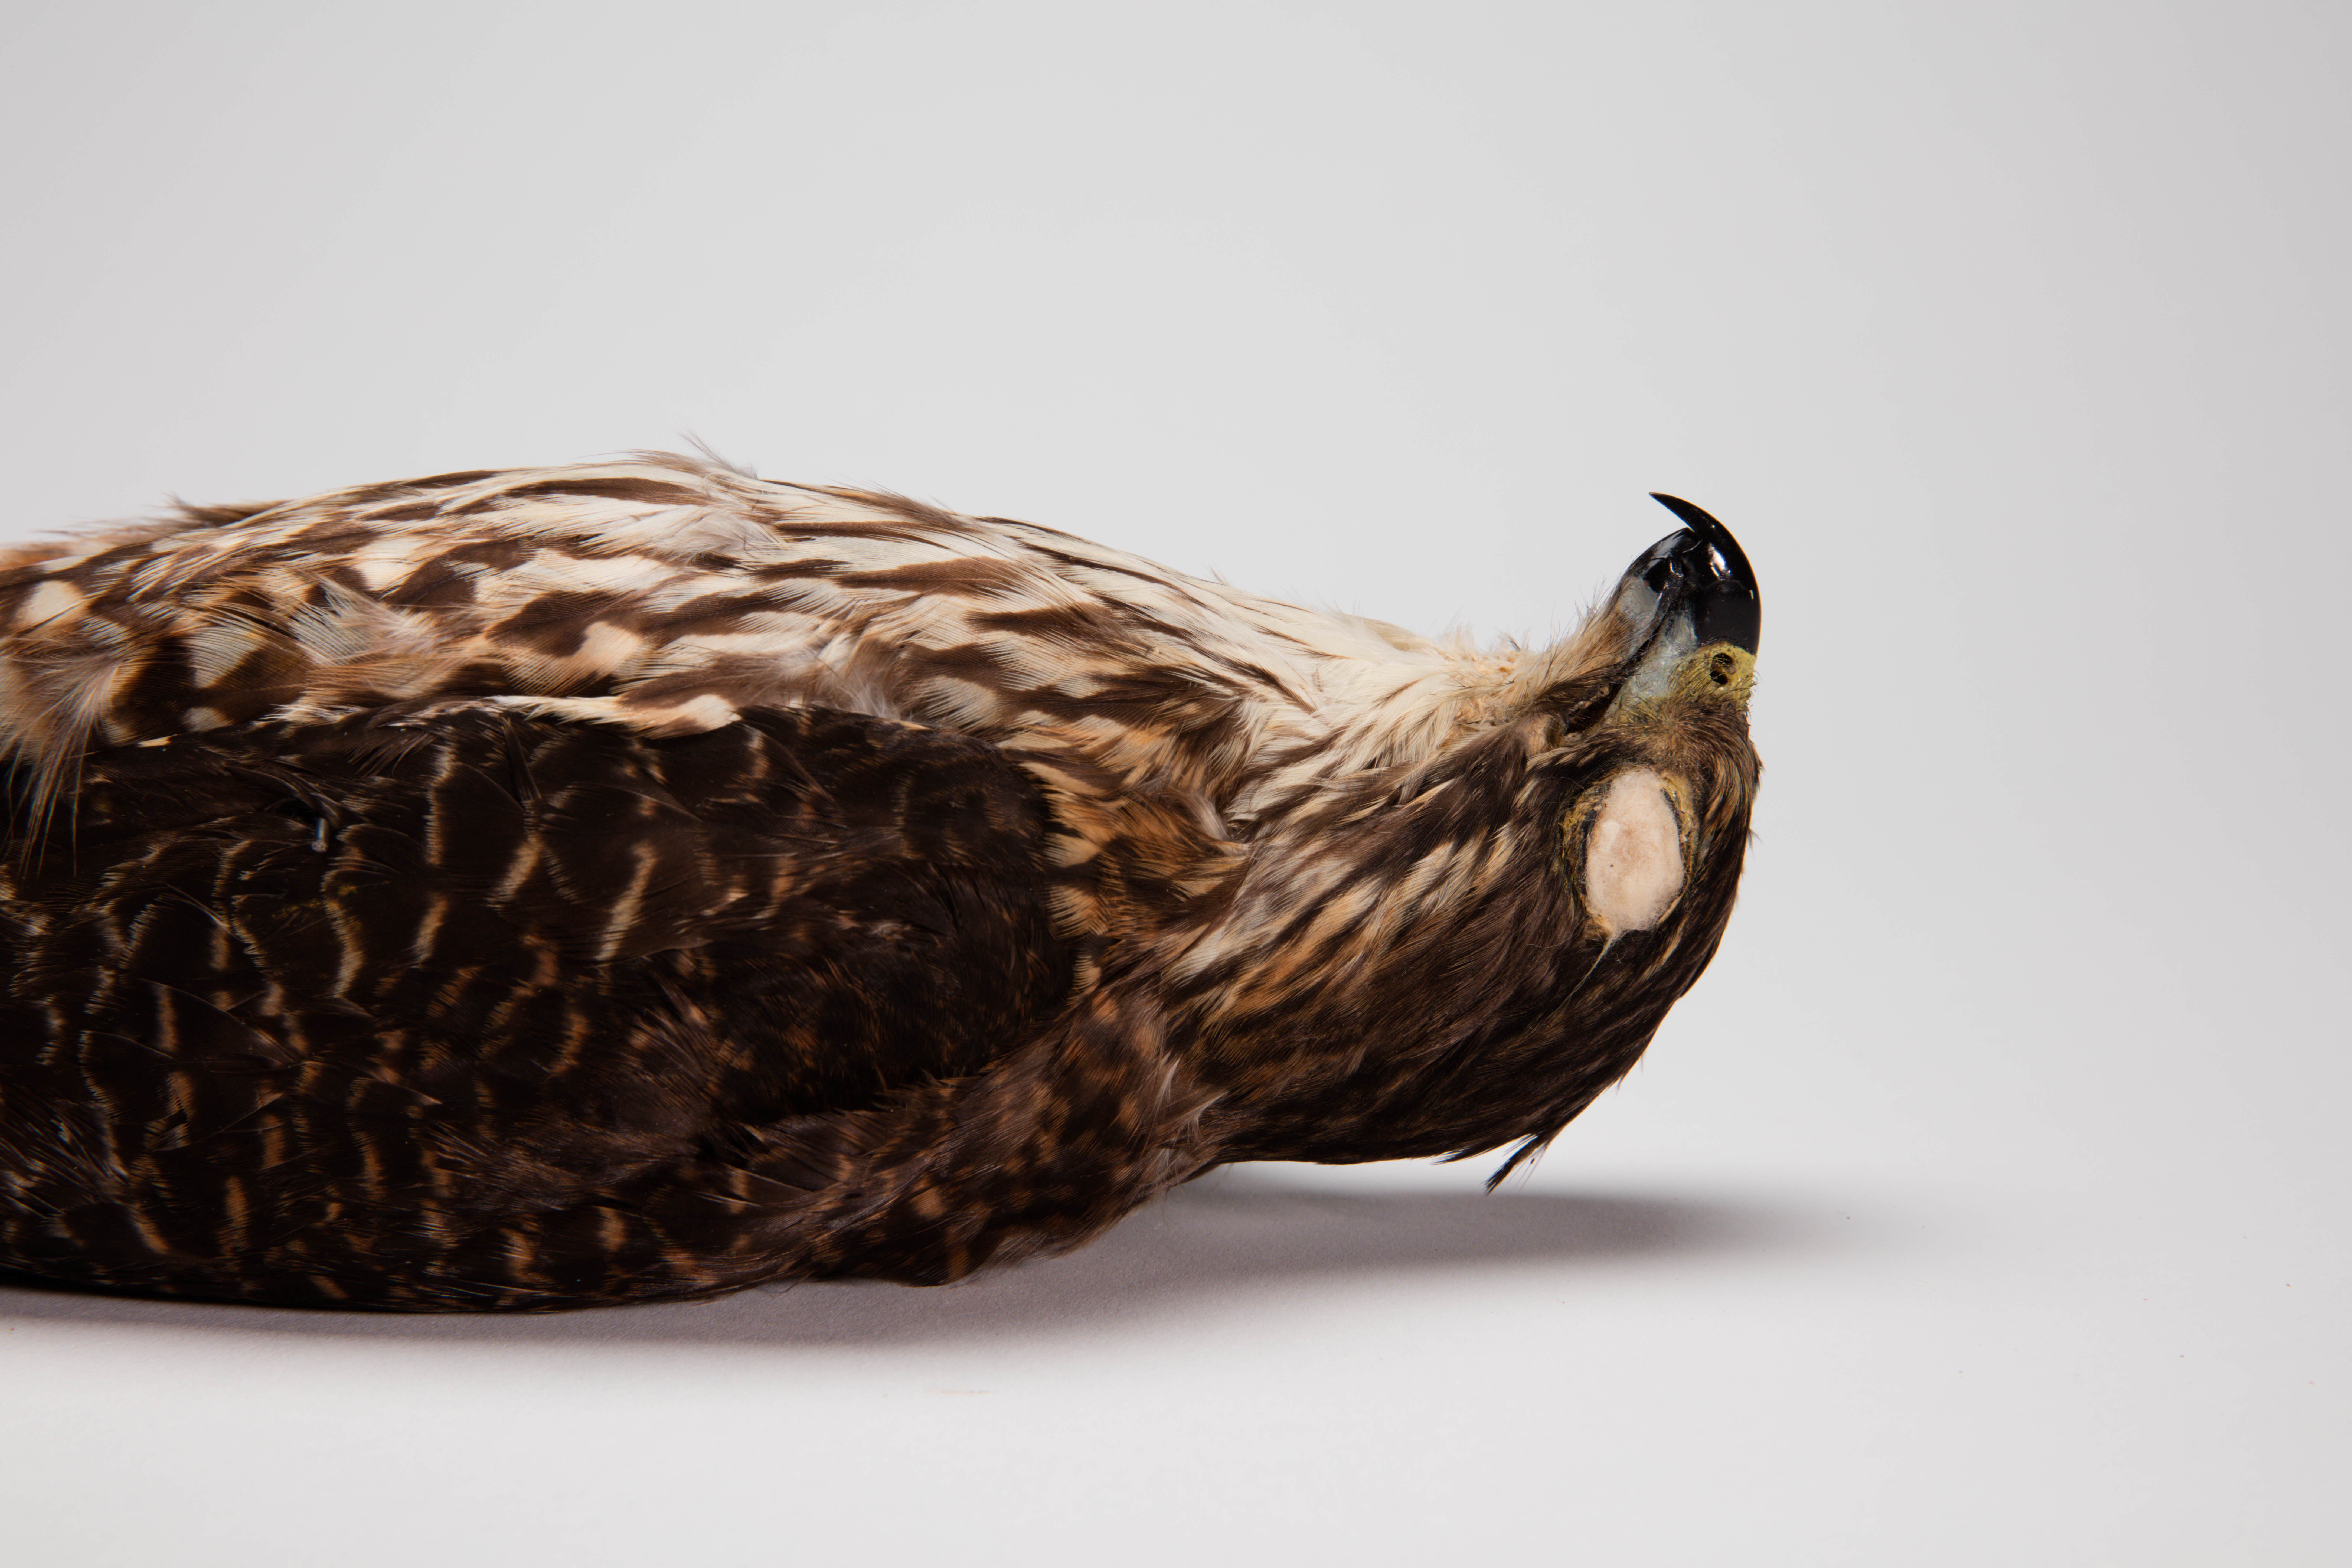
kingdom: Animalia
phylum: Chordata
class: Aves
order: Falconiformes
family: Falconidae
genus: Falco
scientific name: Falco novaeseelandiae
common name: New zealand falcon
